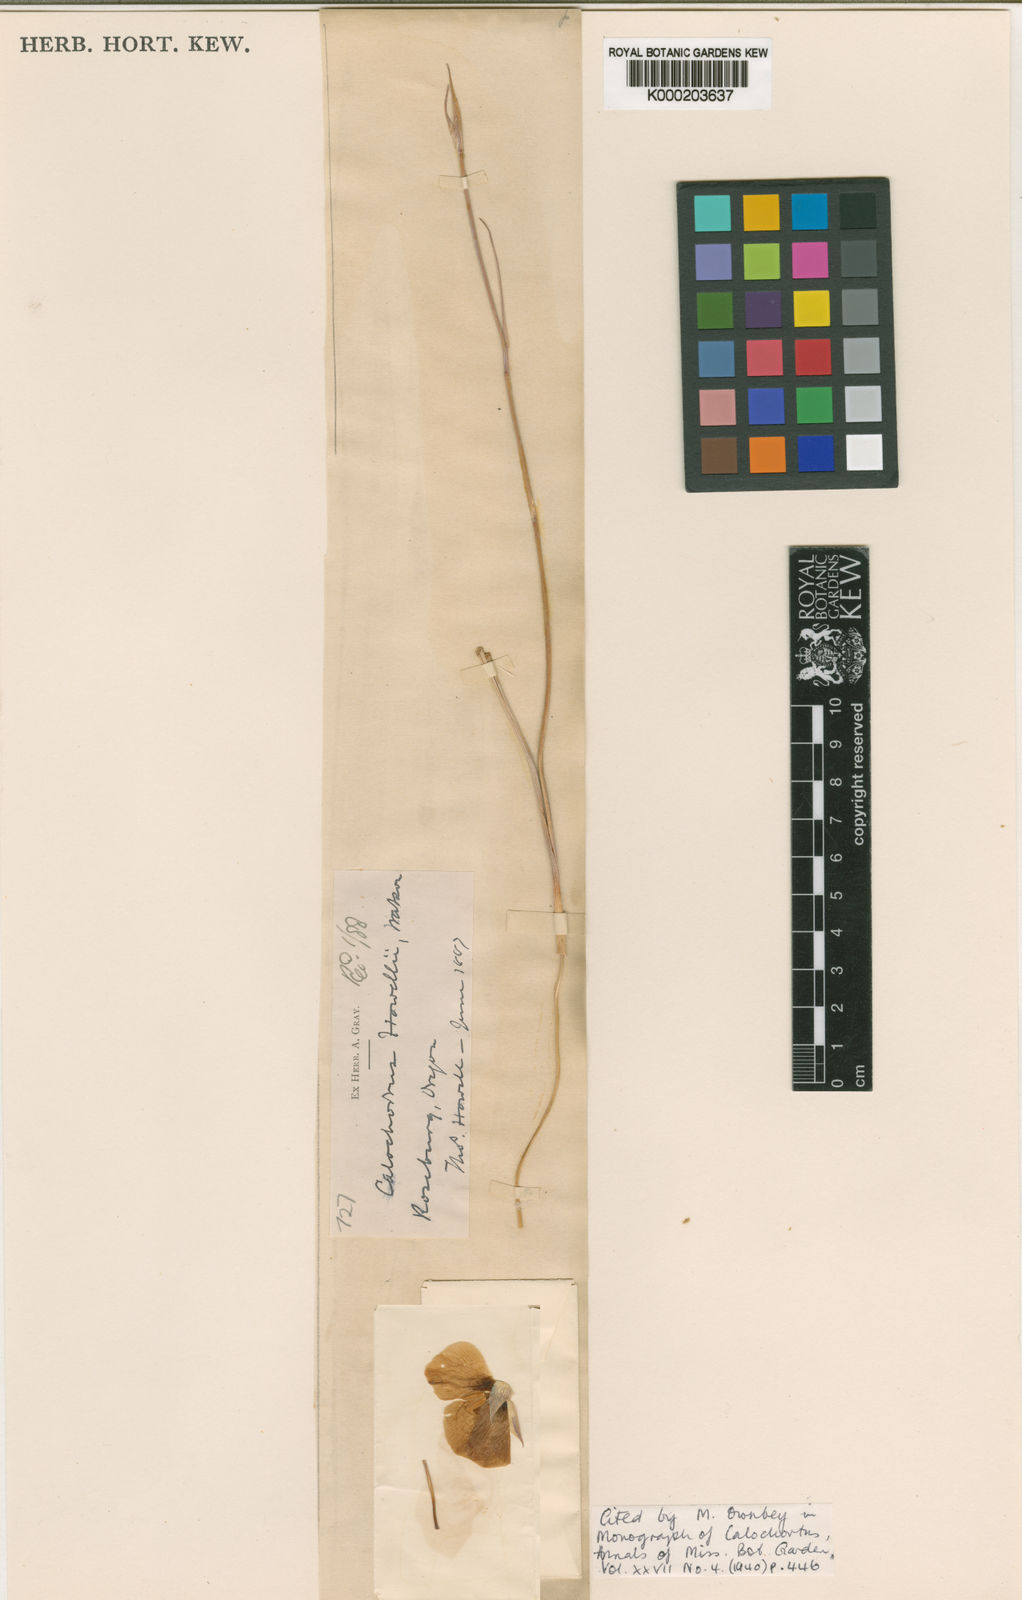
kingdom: Plantae
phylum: Tracheophyta
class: Liliopsida
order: Liliales
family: Liliaceae
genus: Calochortus
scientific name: Calochortus howellii
